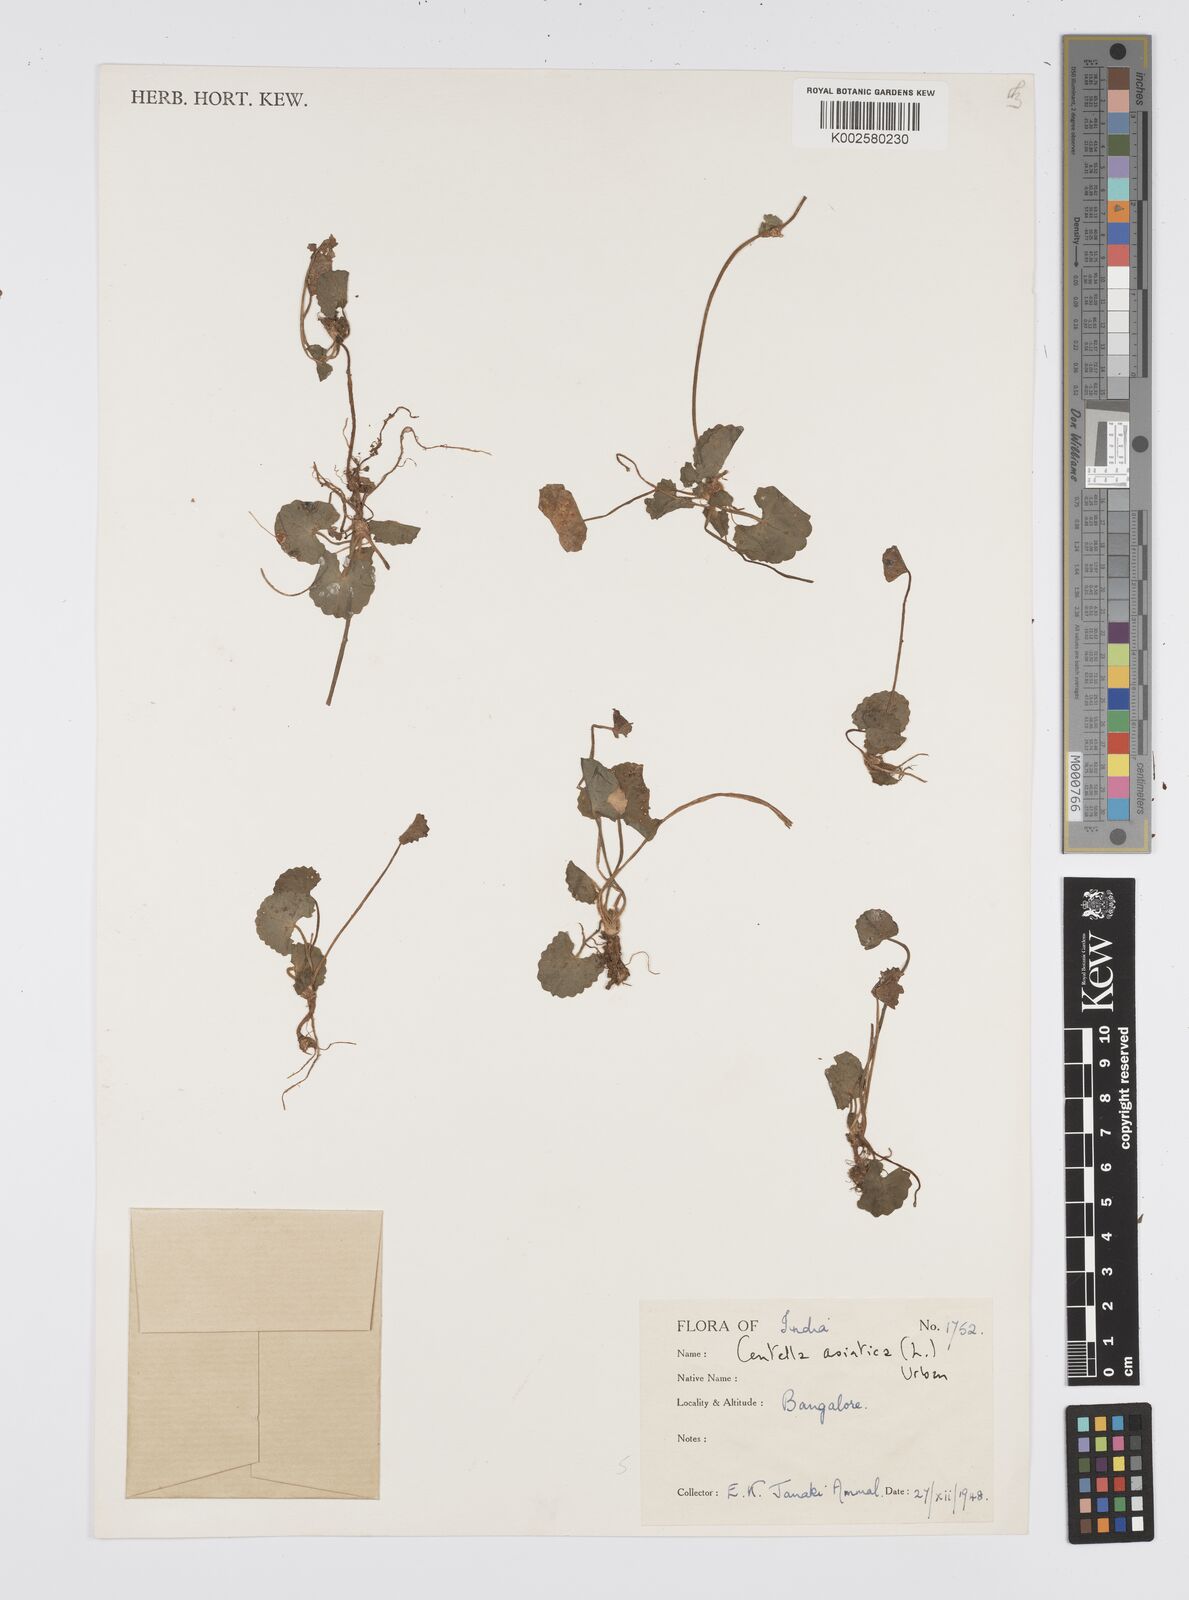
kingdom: Plantae
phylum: Tracheophyta
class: Magnoliopsida
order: Apiales
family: Apiaceae
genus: Centella
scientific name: Centella asiatica
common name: Spadeleaf
